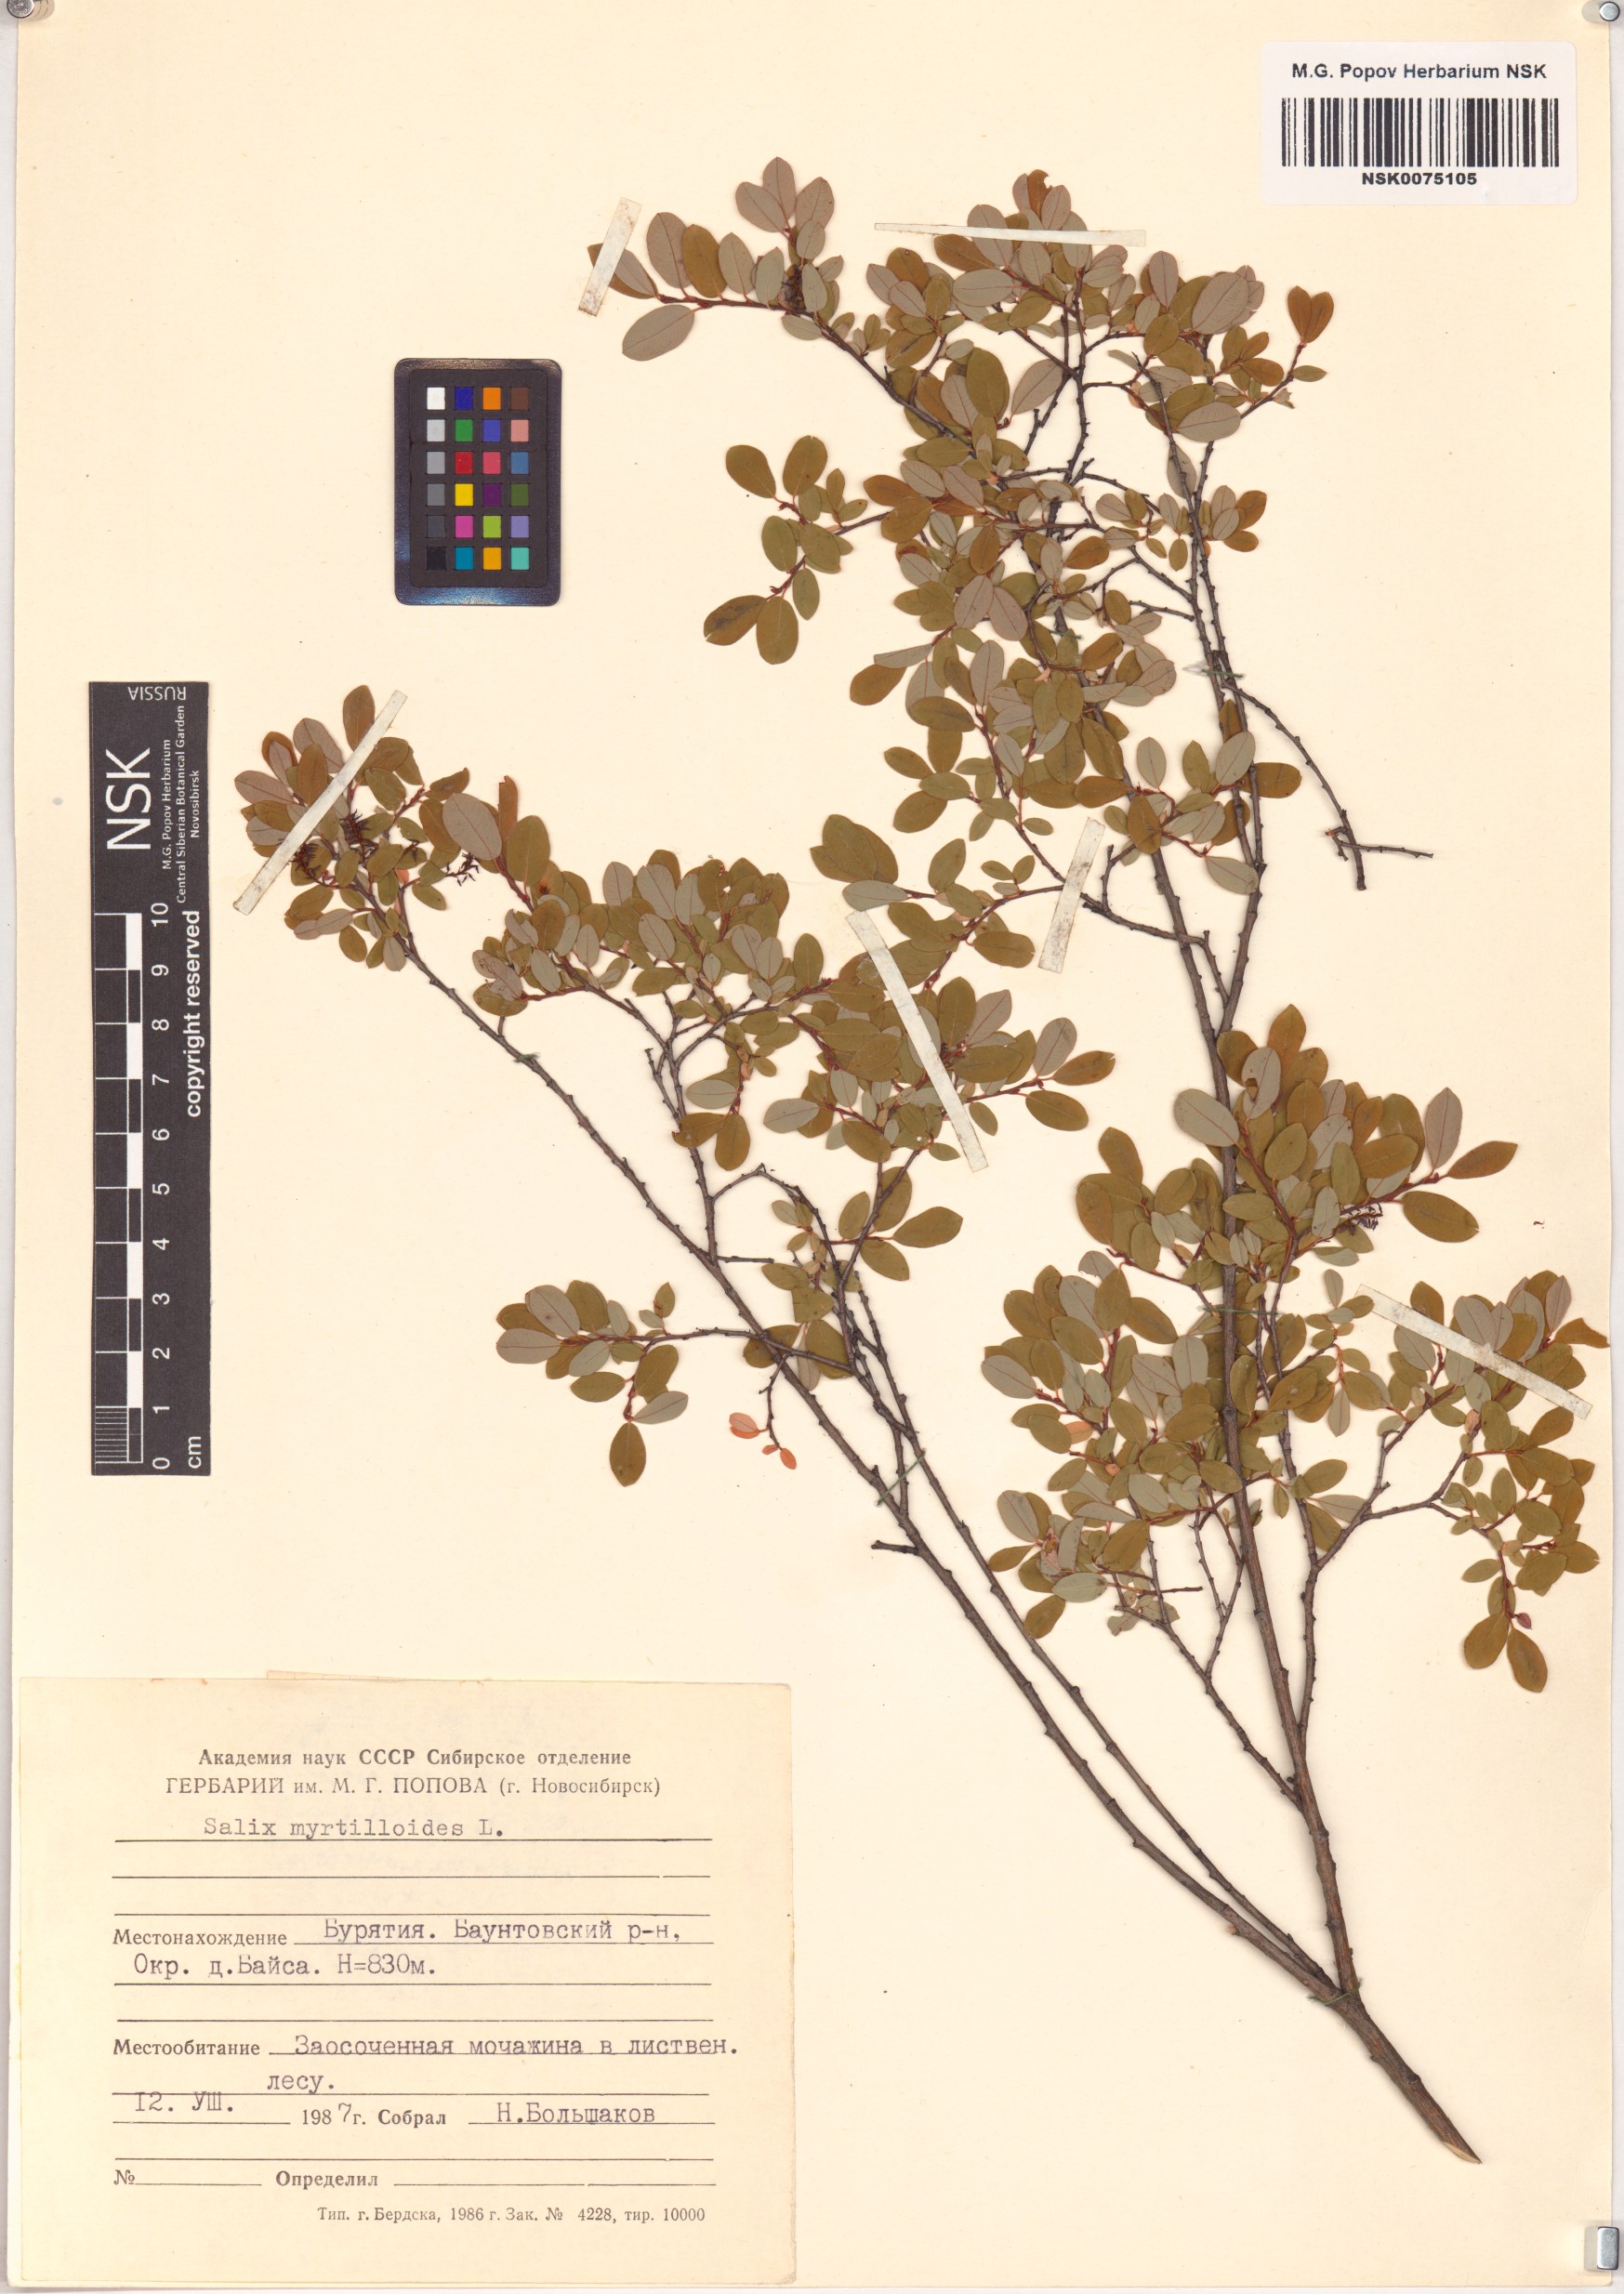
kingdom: Plantae
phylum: Tracheophyta
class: Magnoliopsida
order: Malpighiales
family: Salicaceae
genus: Salix
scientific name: Salix myrtilloides
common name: Myrtle-leaved willow
